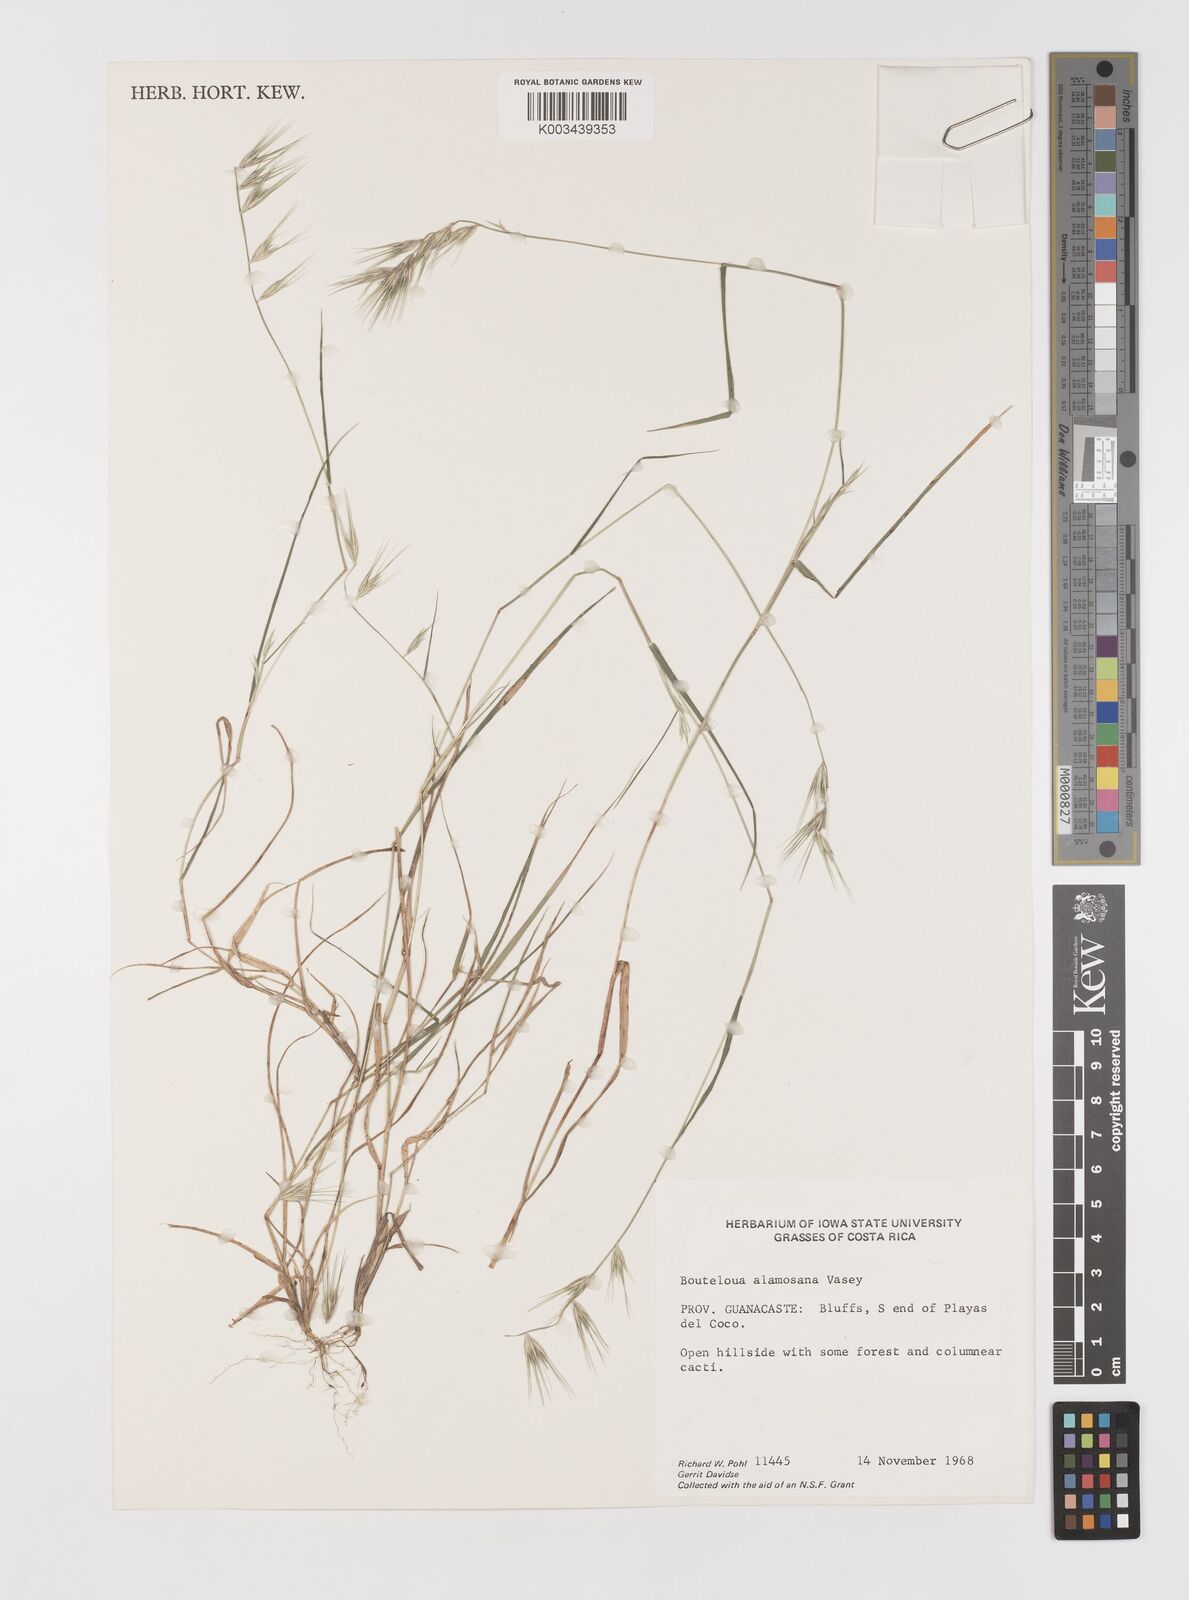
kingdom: Plantae
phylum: Tracheophyta
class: Liliopsida
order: Poales
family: Poaceae
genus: Bouteloua
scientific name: Bouteloua alamosana
